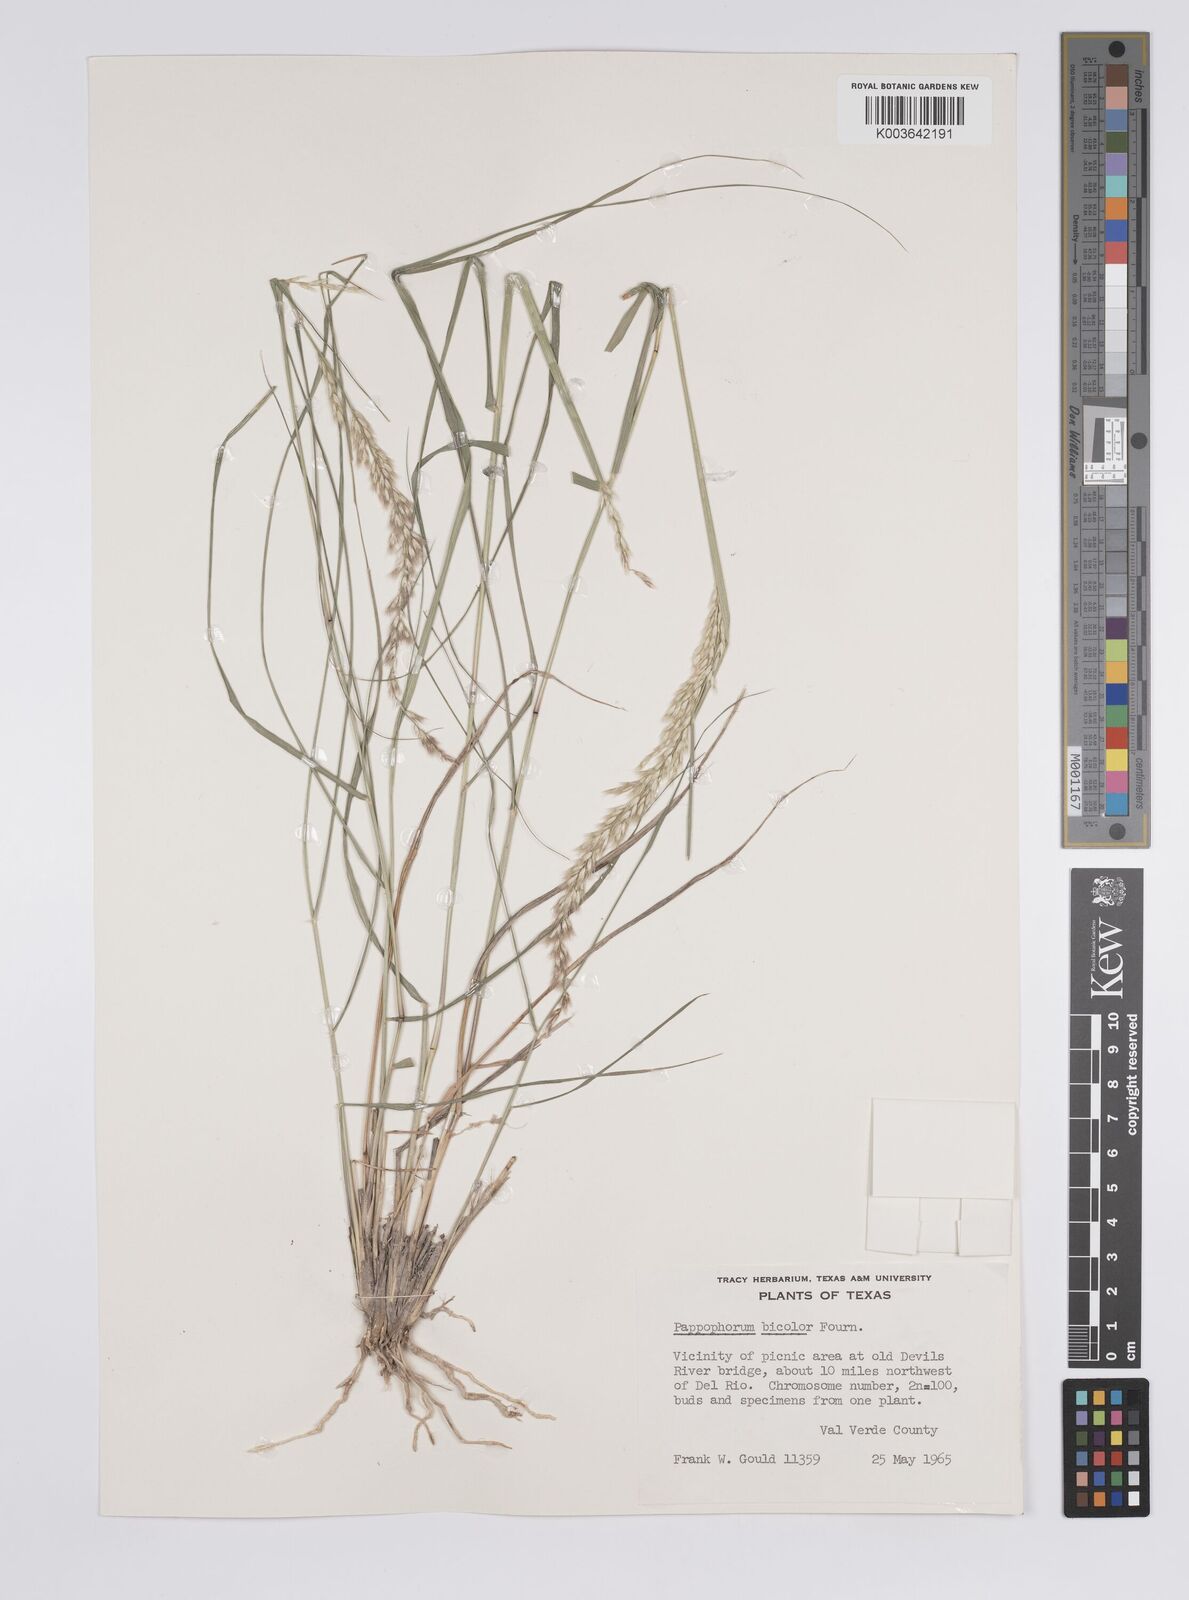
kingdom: Plantae
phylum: Tracheophyta
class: Liliopsida
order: Poales
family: Poaceae
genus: Pappophorum
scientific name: Pappophorum bicolor
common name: Pink pappus grass
